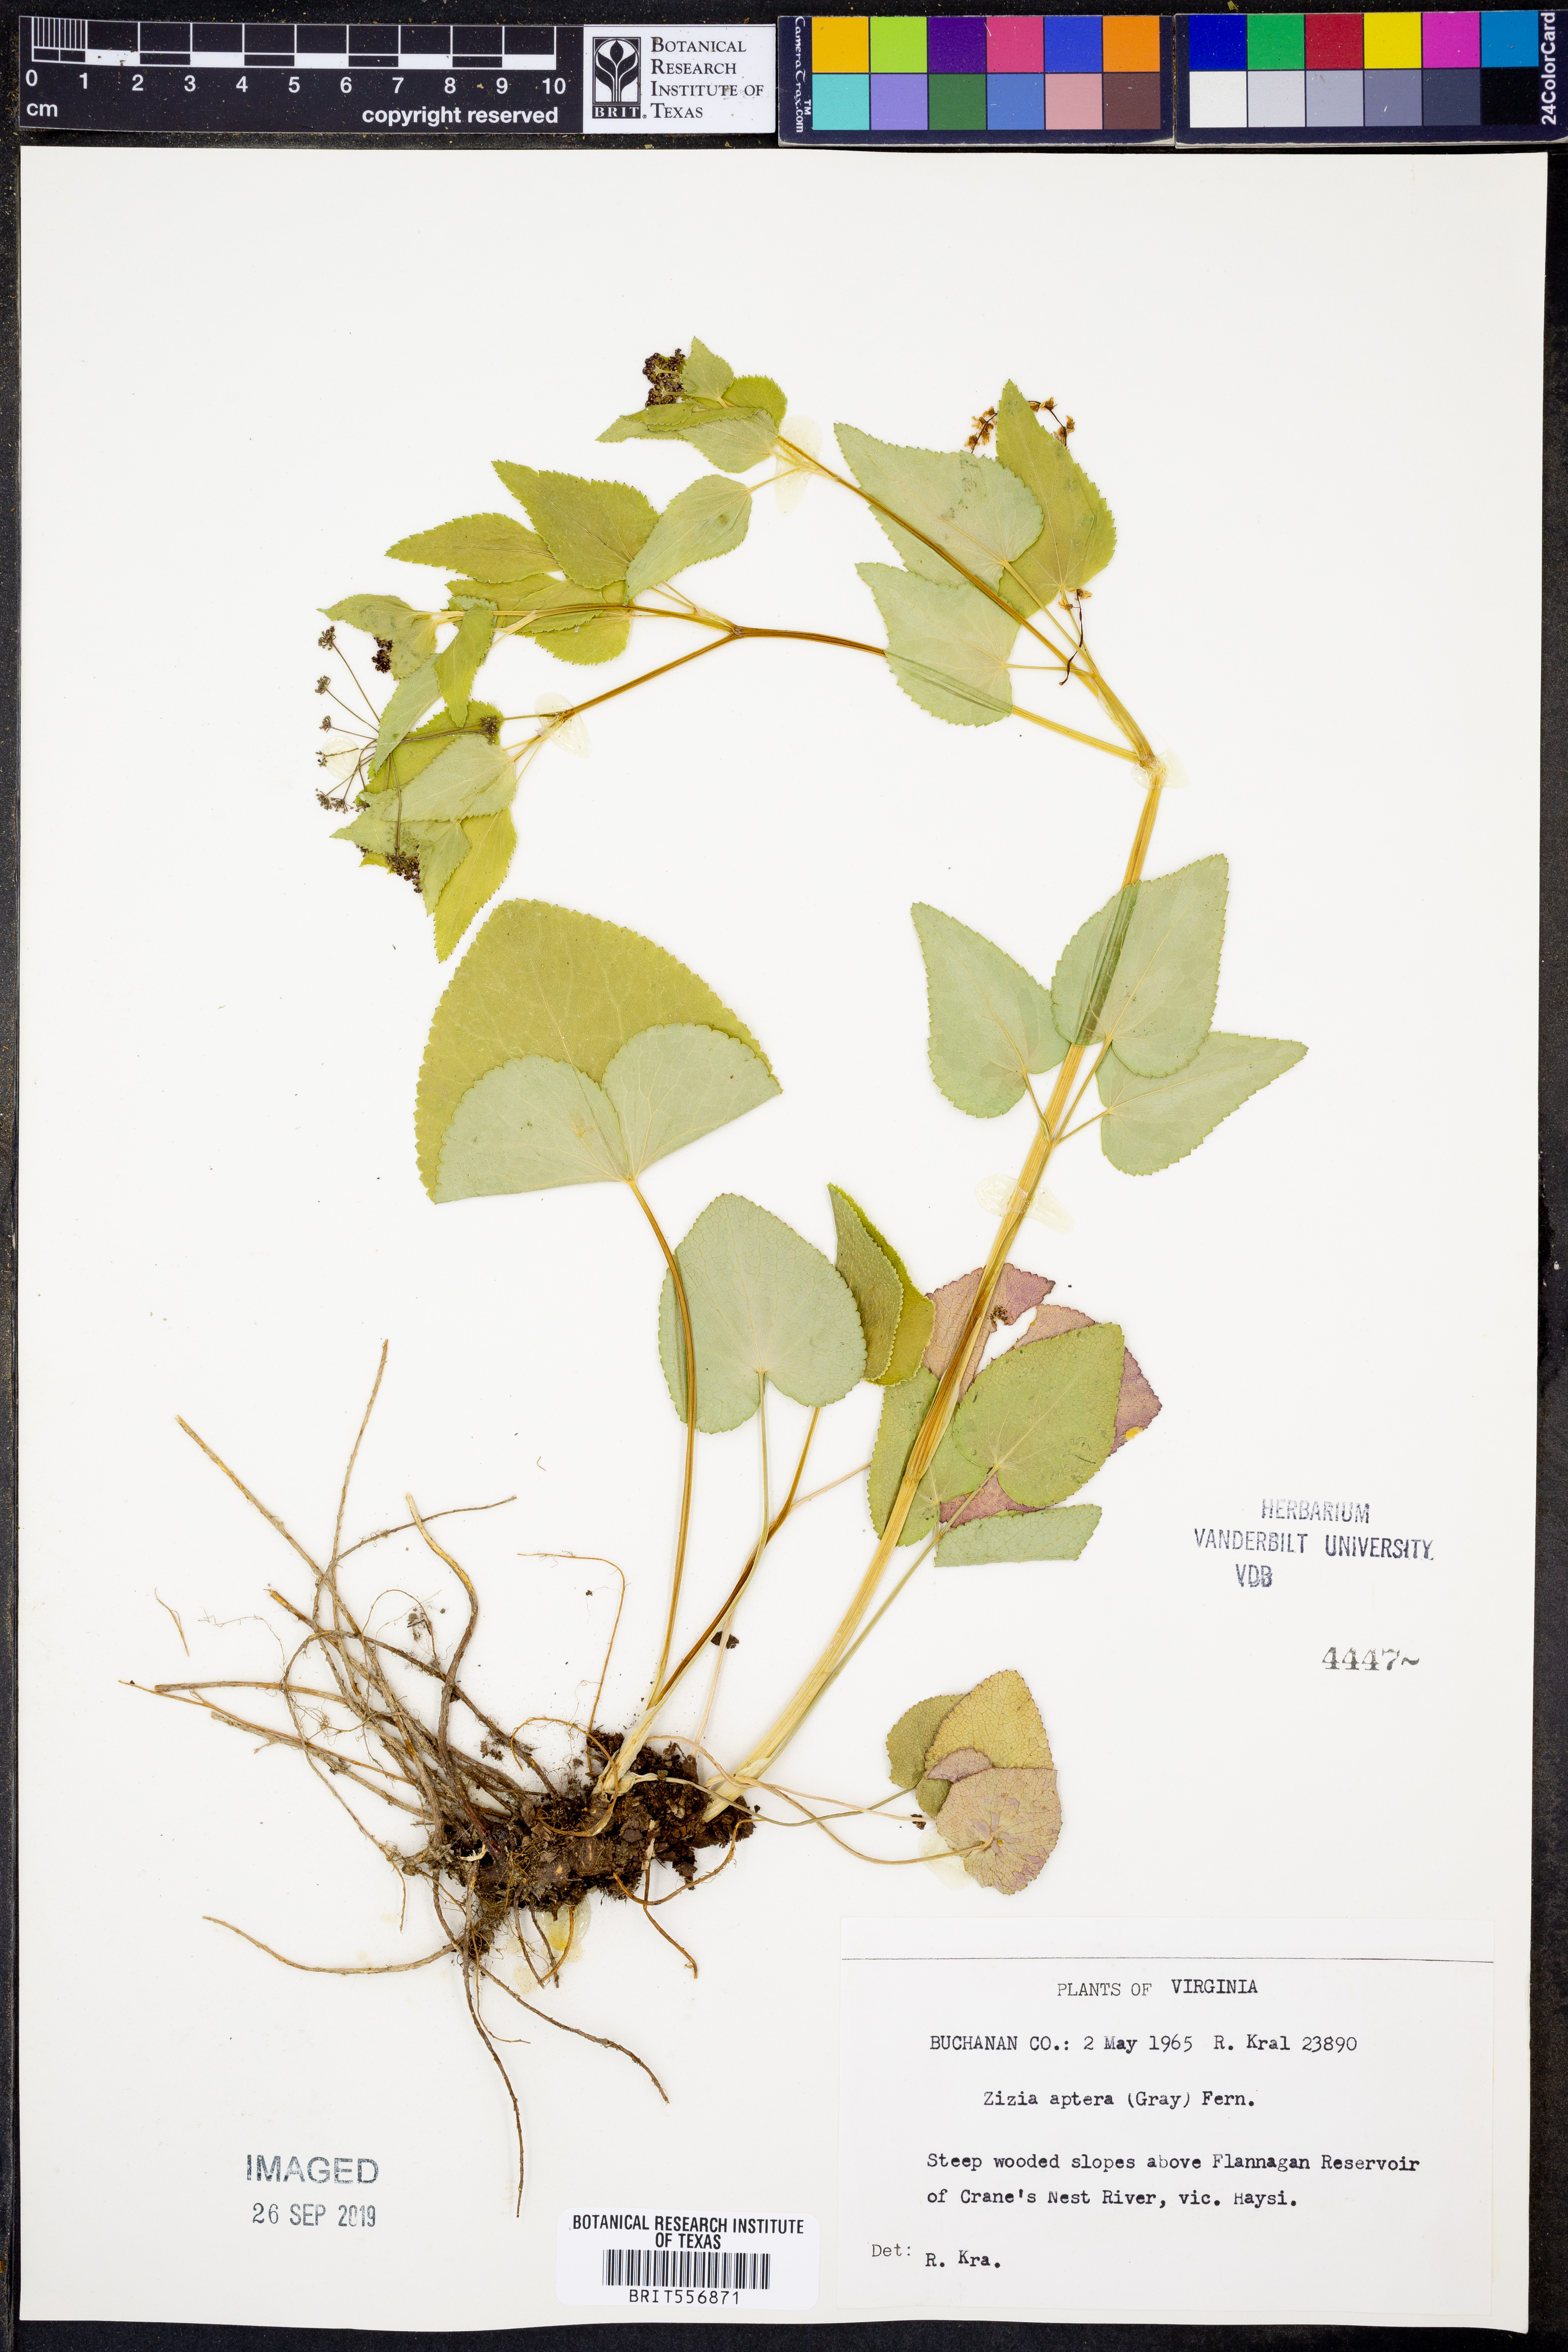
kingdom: Plantae
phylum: Tracheophyta
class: Magnoliopsida
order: Apiales
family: Apiaceae
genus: Zizia
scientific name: Zizia aptera
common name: Heart-leaved alexanders
